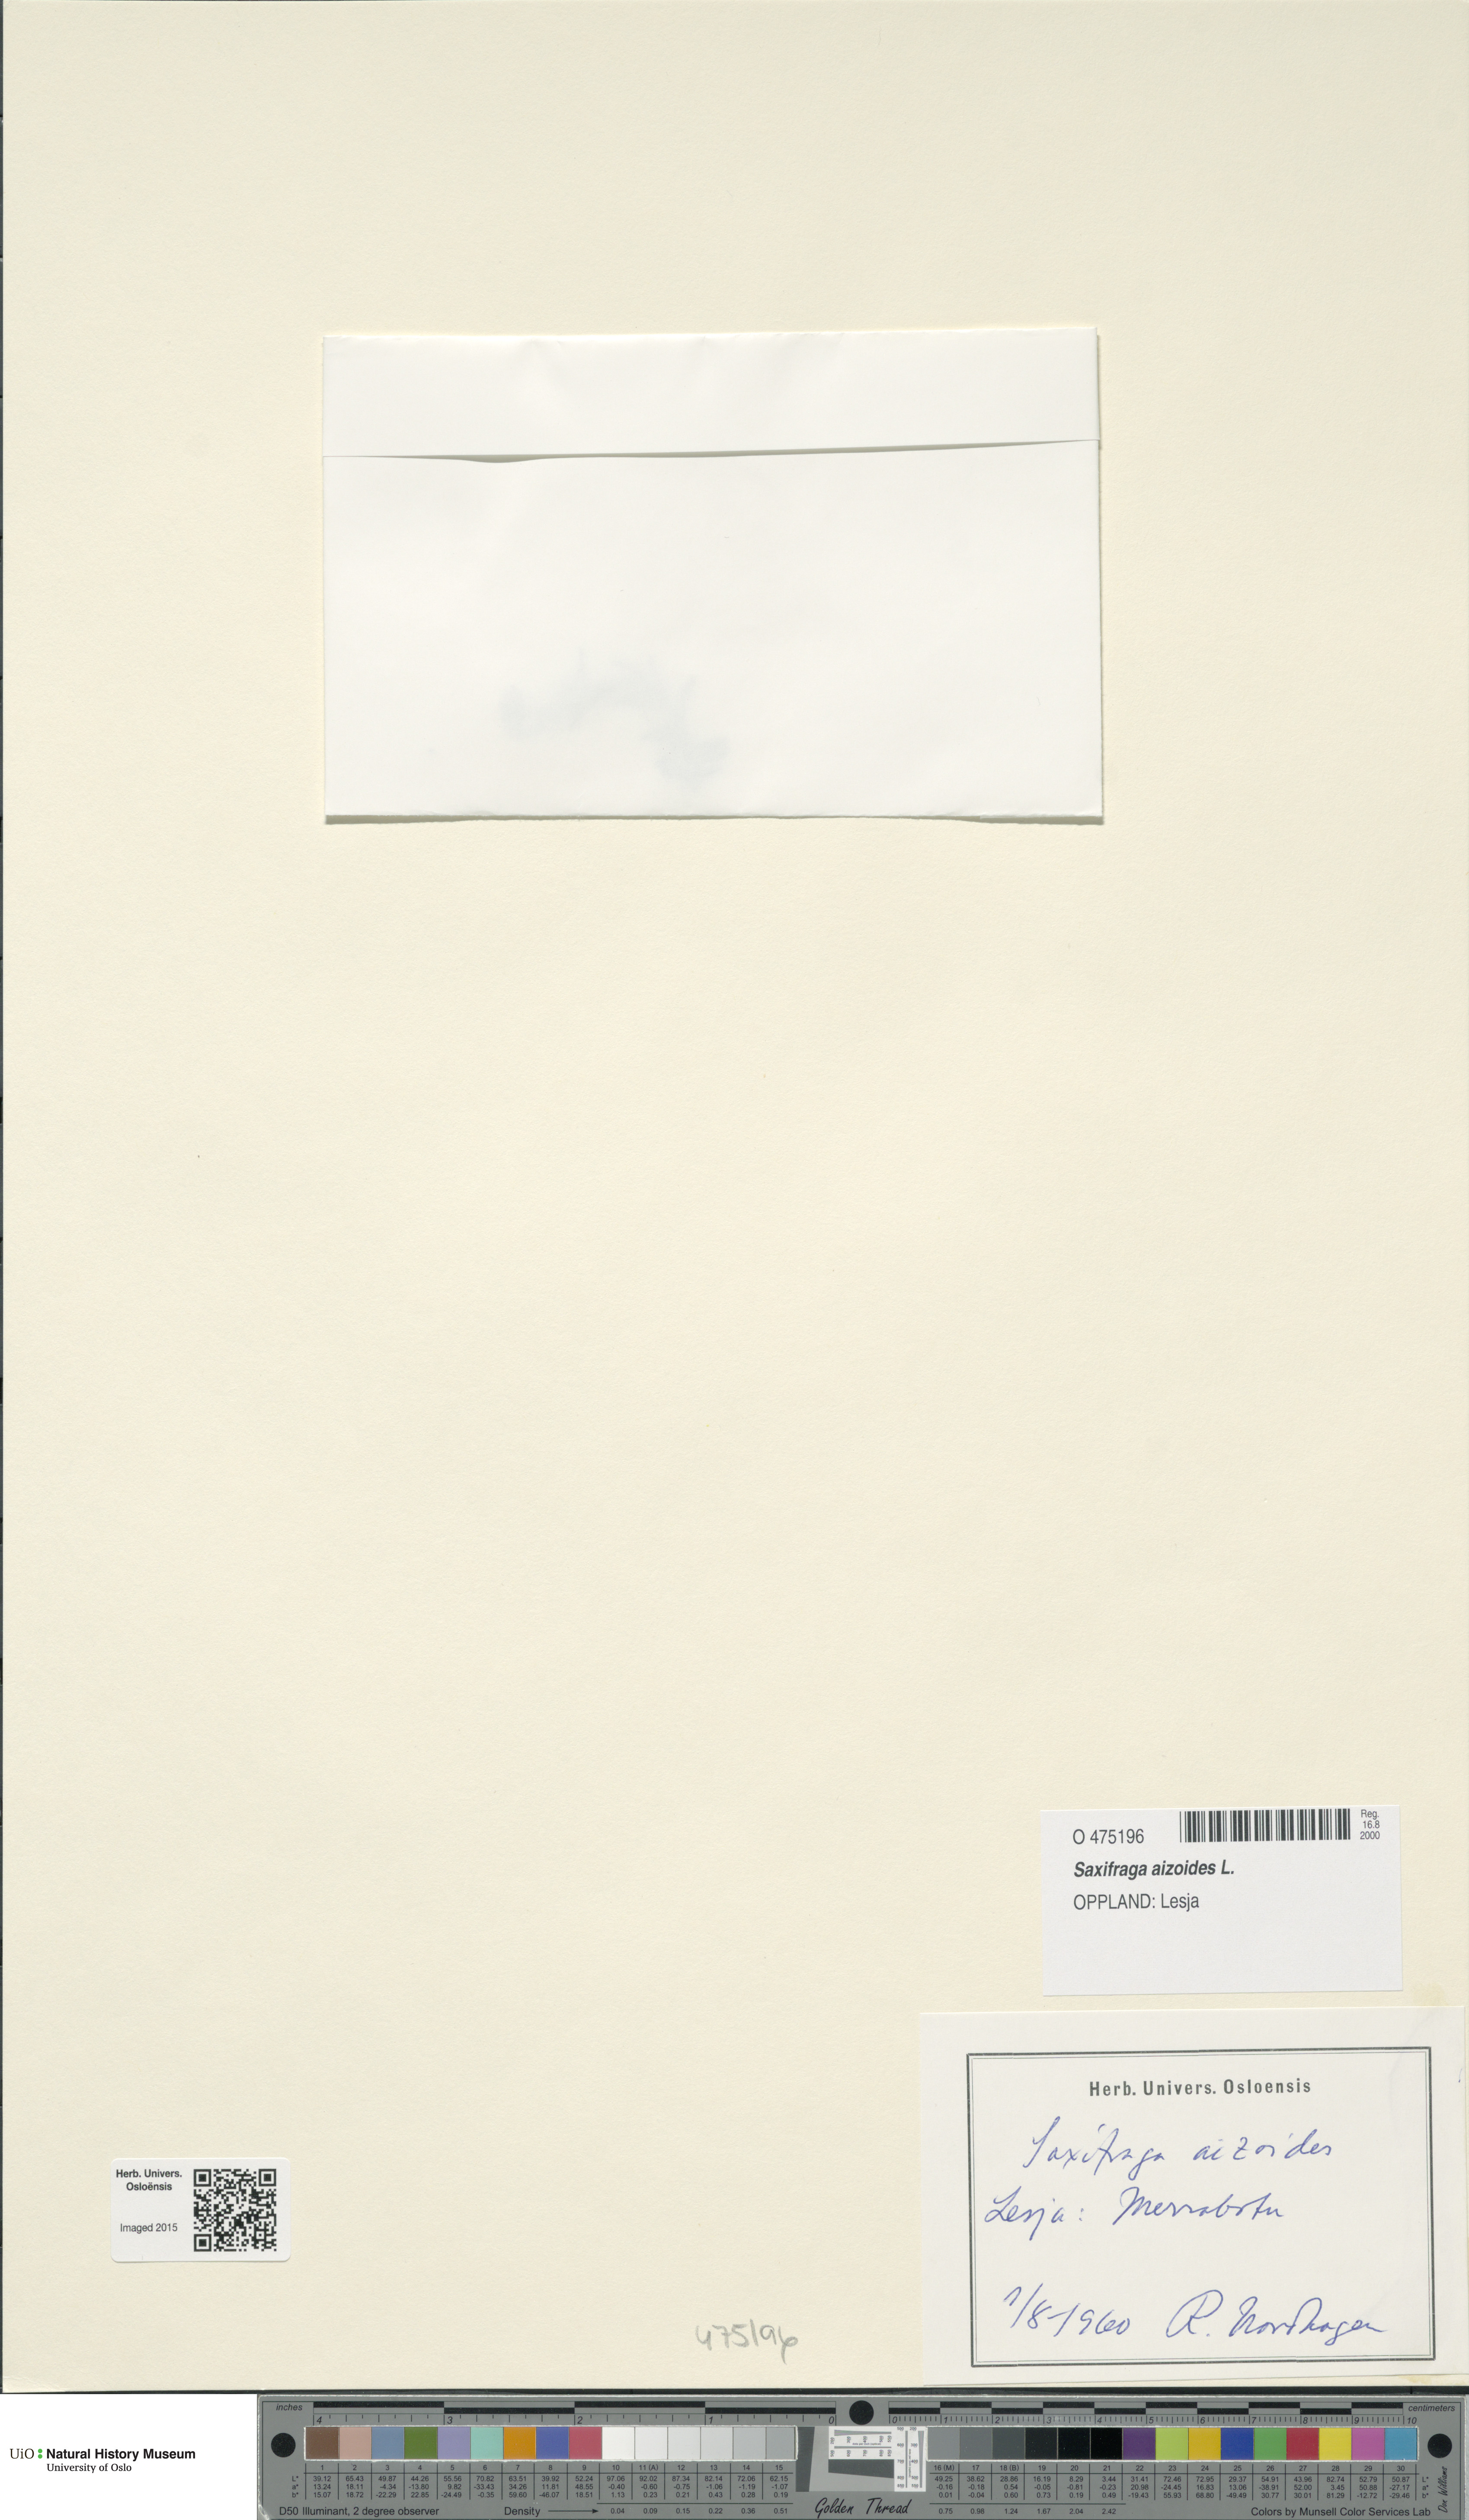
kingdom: Plantae
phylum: Tracheophyta
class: Magnoliopsida
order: Saxifragales
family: Saxifragaceae
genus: Saxifraga
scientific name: Saxifraga aizoides
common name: Yellow mountain saxifrage
